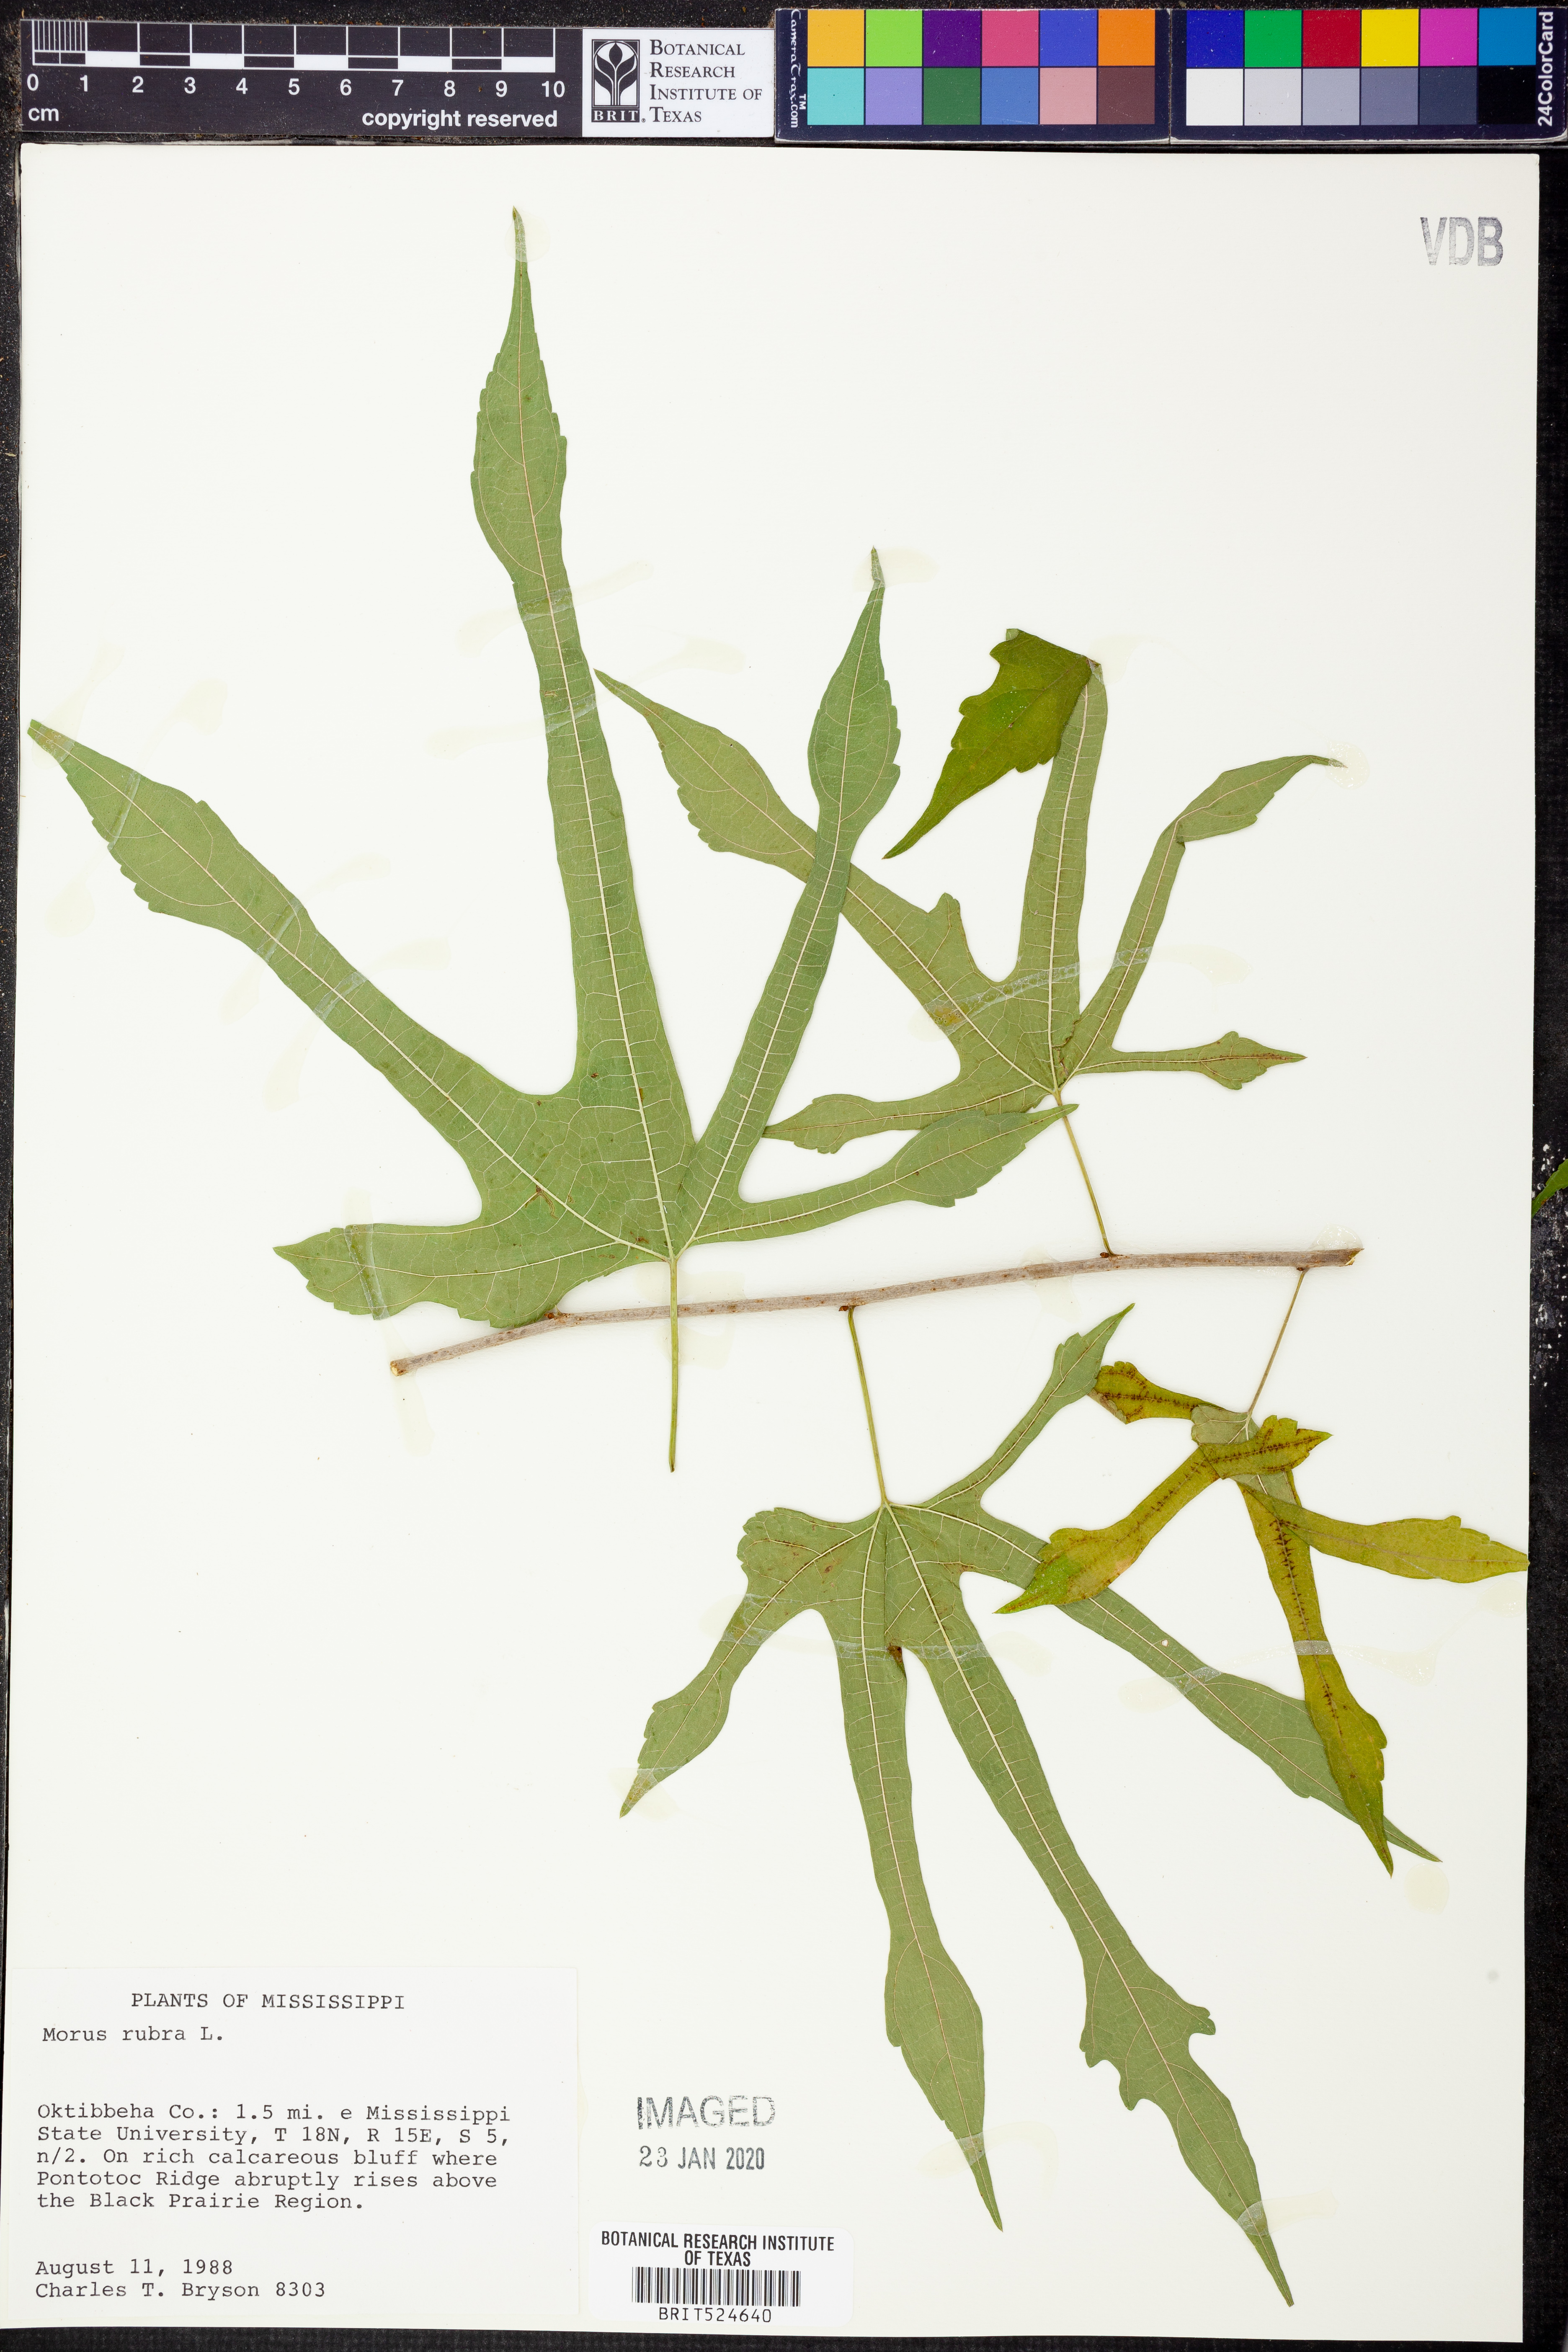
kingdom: Plantae
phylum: Tracheophyta
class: Magnoliopsida
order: Rosales
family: Moraceae
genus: Morus
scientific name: Morus rubra
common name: Red mulberry
